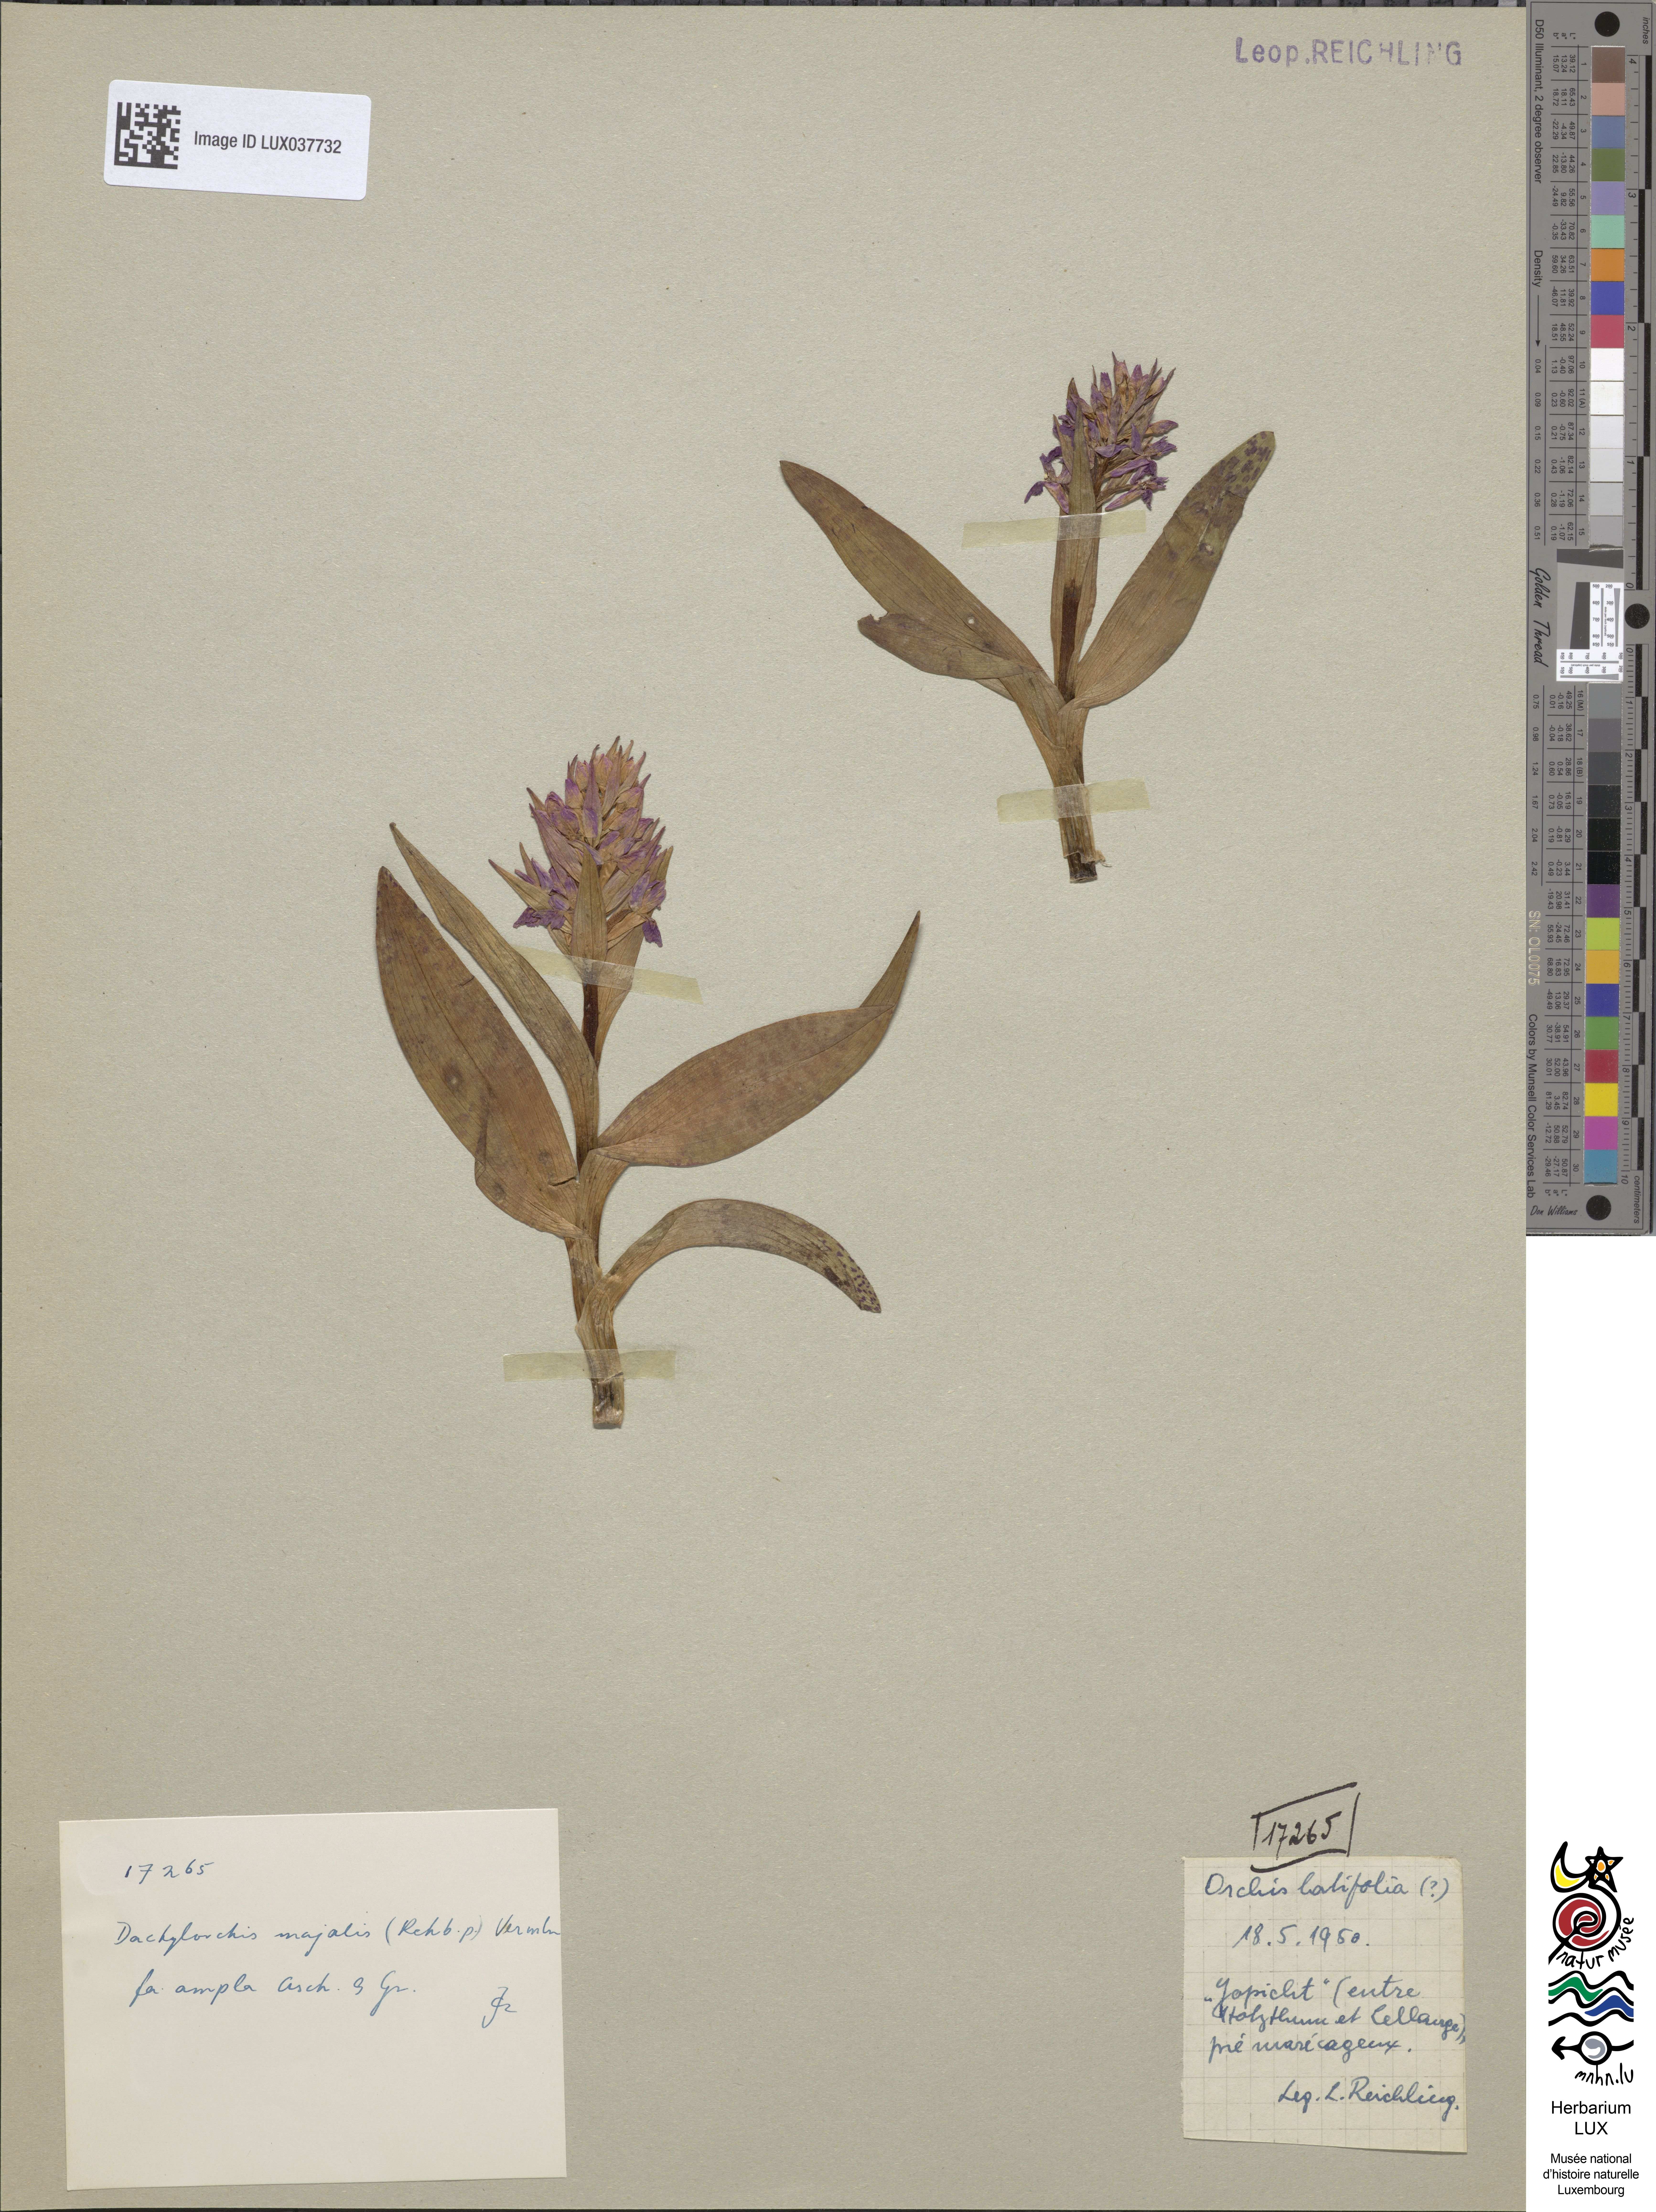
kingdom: Plantae
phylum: Tracheophyta
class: Liliopsida
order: Asparagales
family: Orchidaceae
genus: Dactylorhiza
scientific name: Dactylorhiza incarnata
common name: Early marsh-orchid
